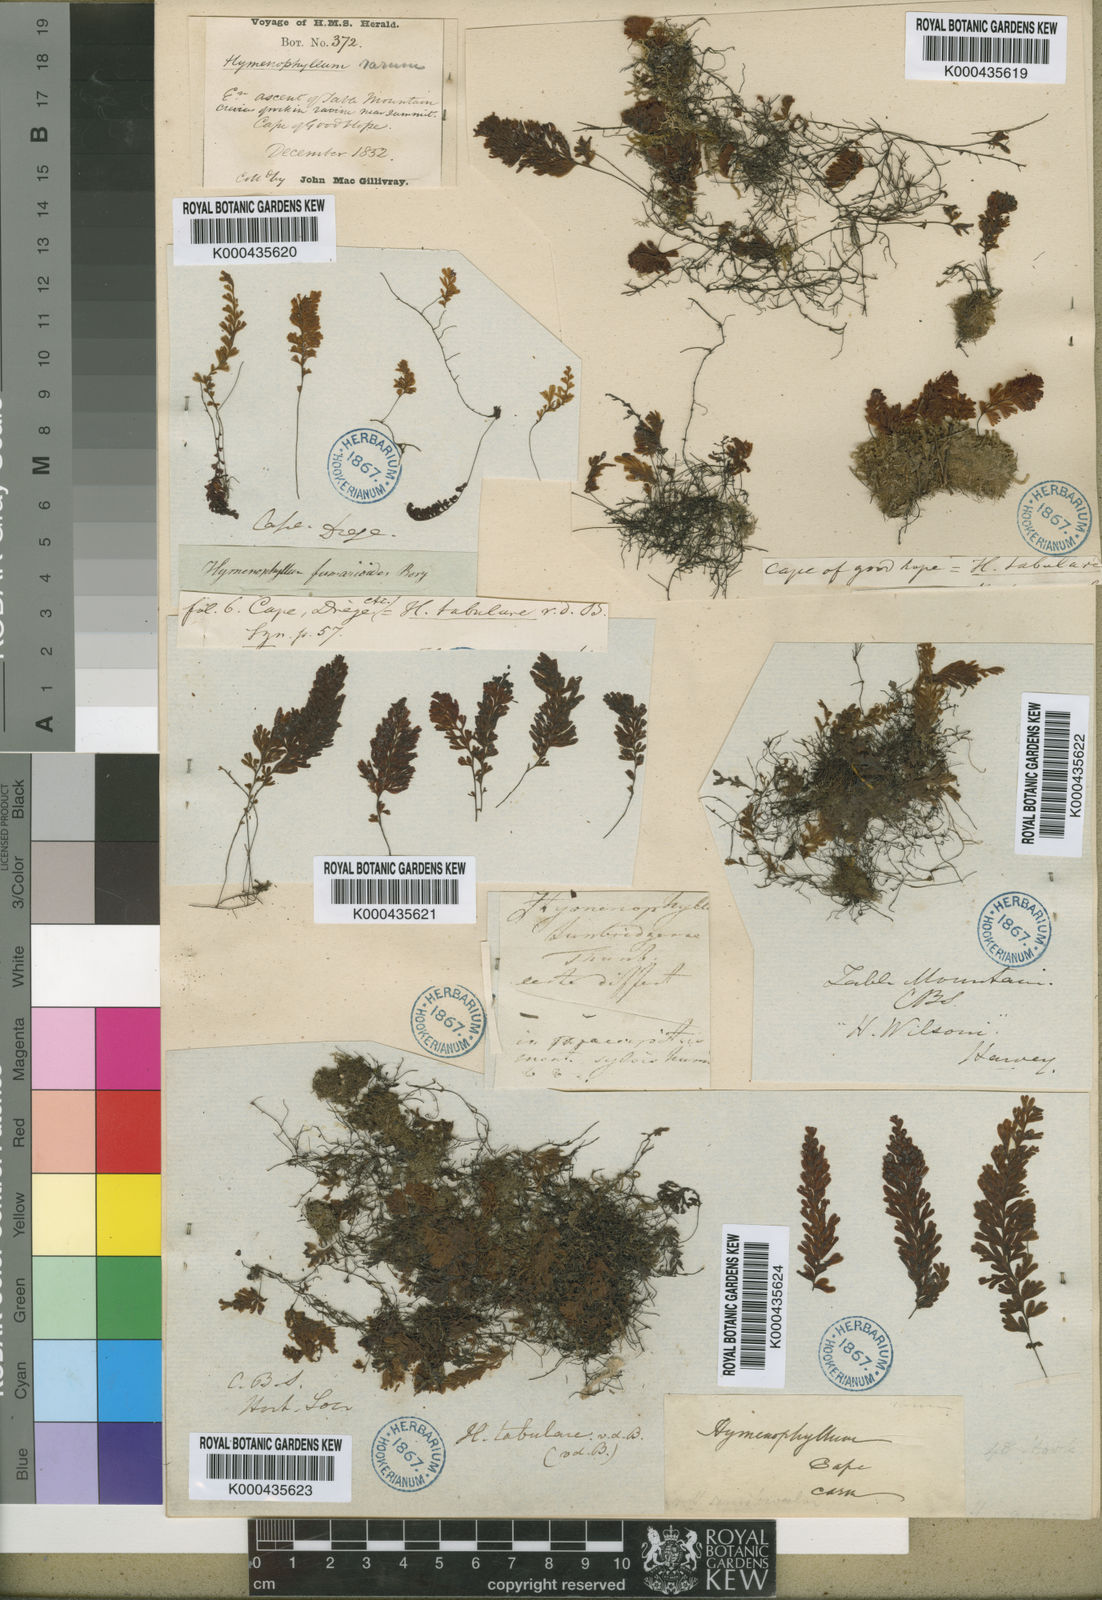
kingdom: Plantae
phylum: Tracheophyta
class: Polypodiopsida
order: Hymenophyllales
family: Hymenophyllaceae
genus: Hymenophyllum
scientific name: Hymenophyllum capense
